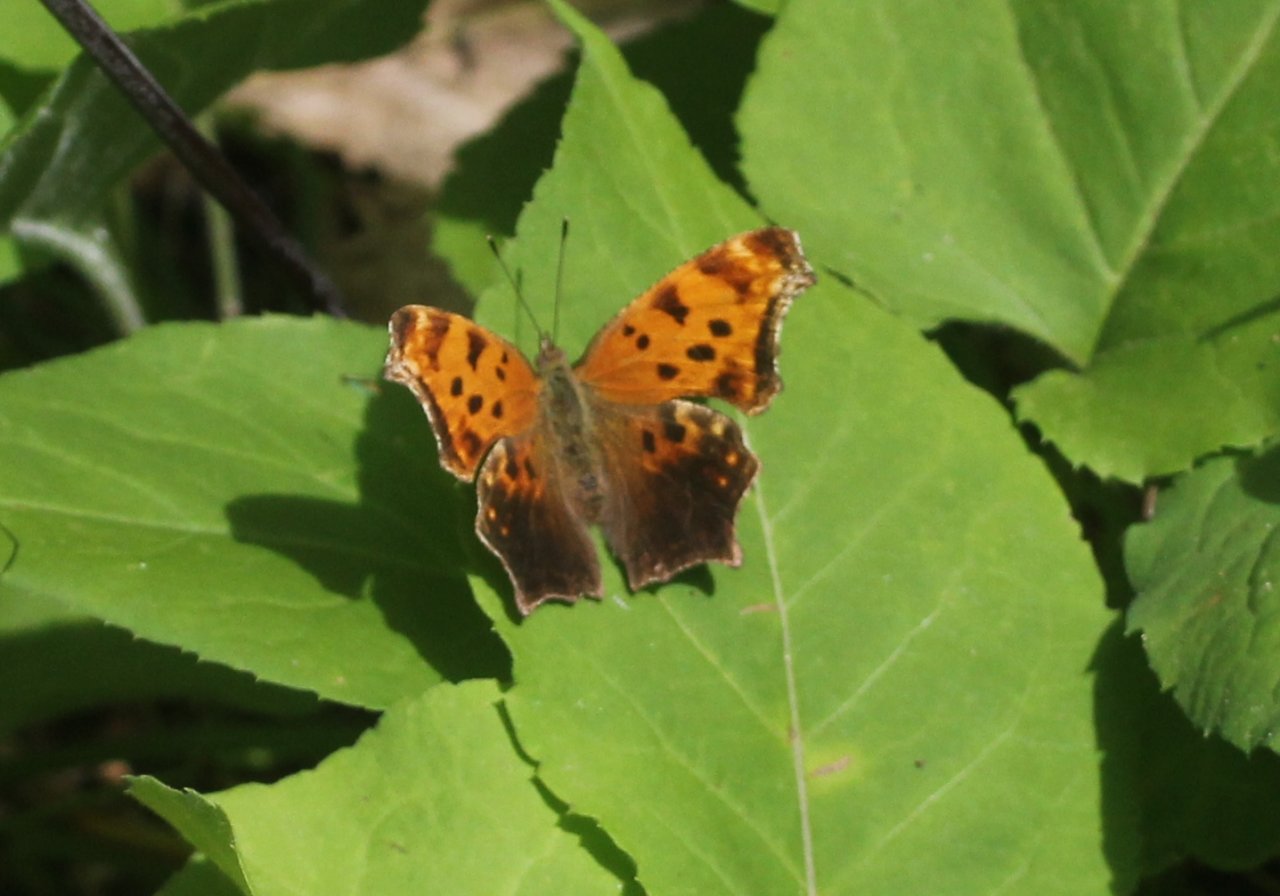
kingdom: Animalia
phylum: Arthropoda
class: Insecta
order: Lepidoptera
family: Nymphalidae
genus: Polygonia
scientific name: Polygonia comma
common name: Eastern Comma
